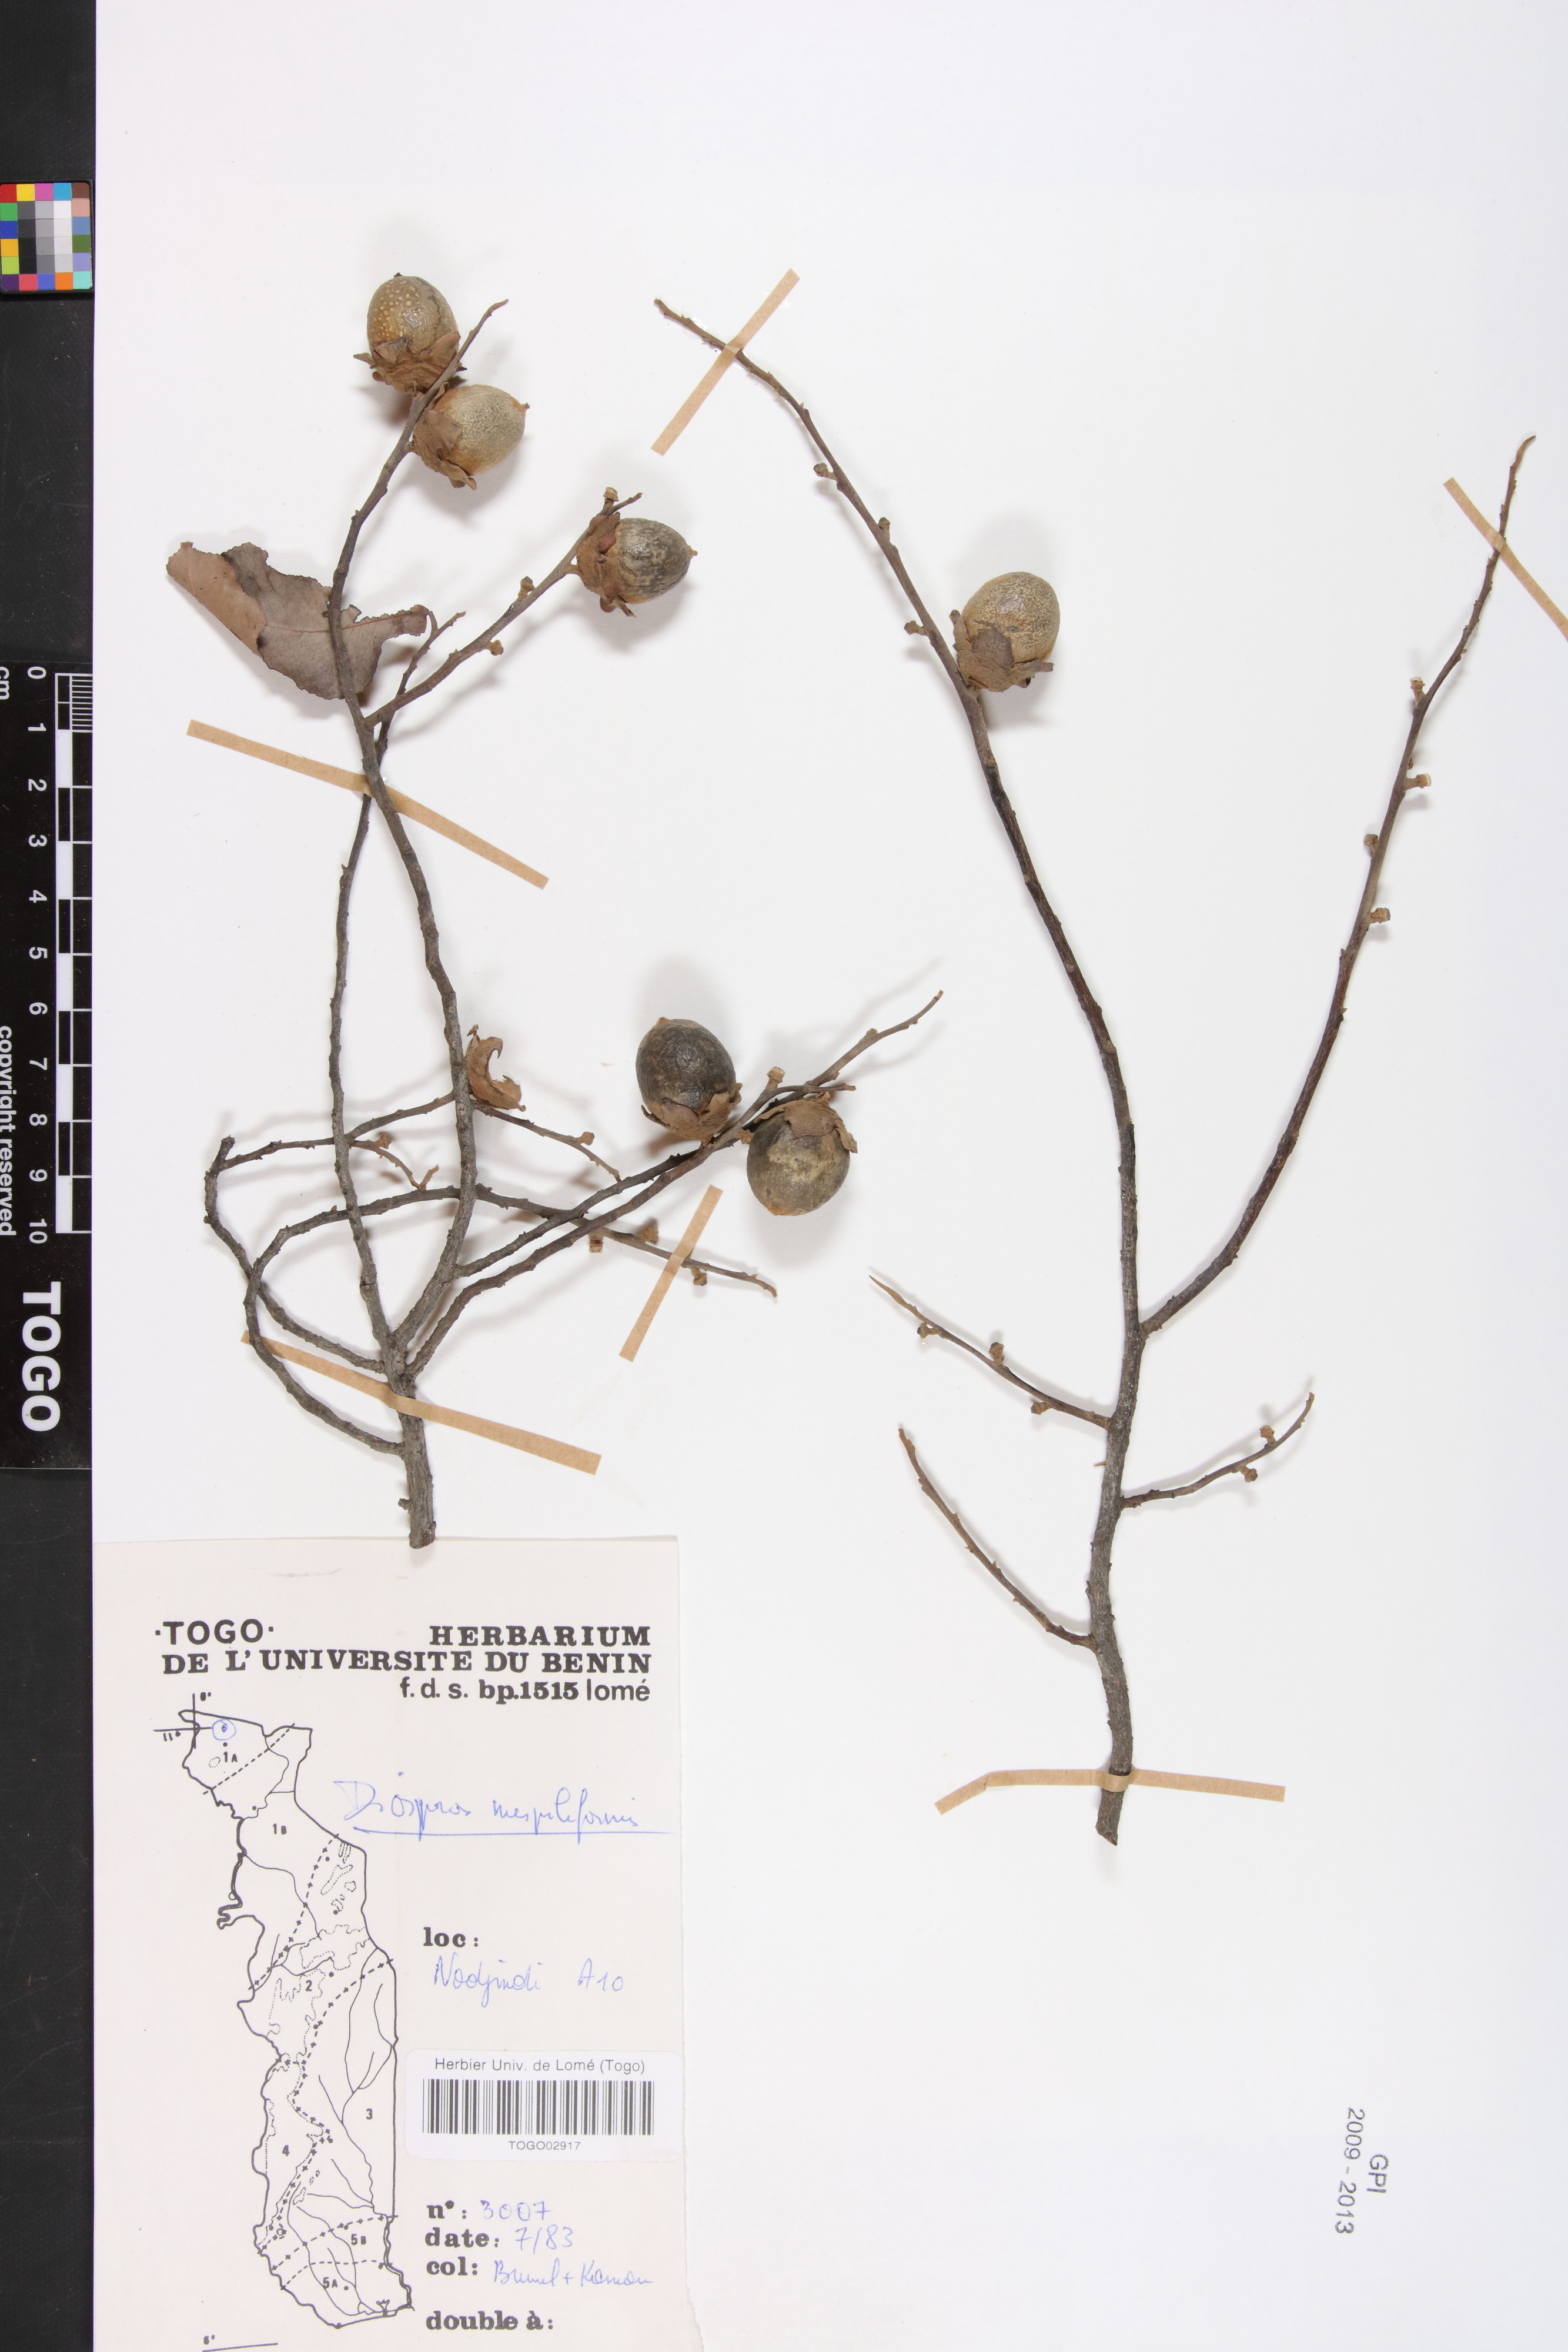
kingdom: Plantae
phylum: Tracheophyta
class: Magnoliopsida
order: Ericales
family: Ebenaceae
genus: Diospyros
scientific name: Diospyros mespiliformis
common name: Ebony diospyros
